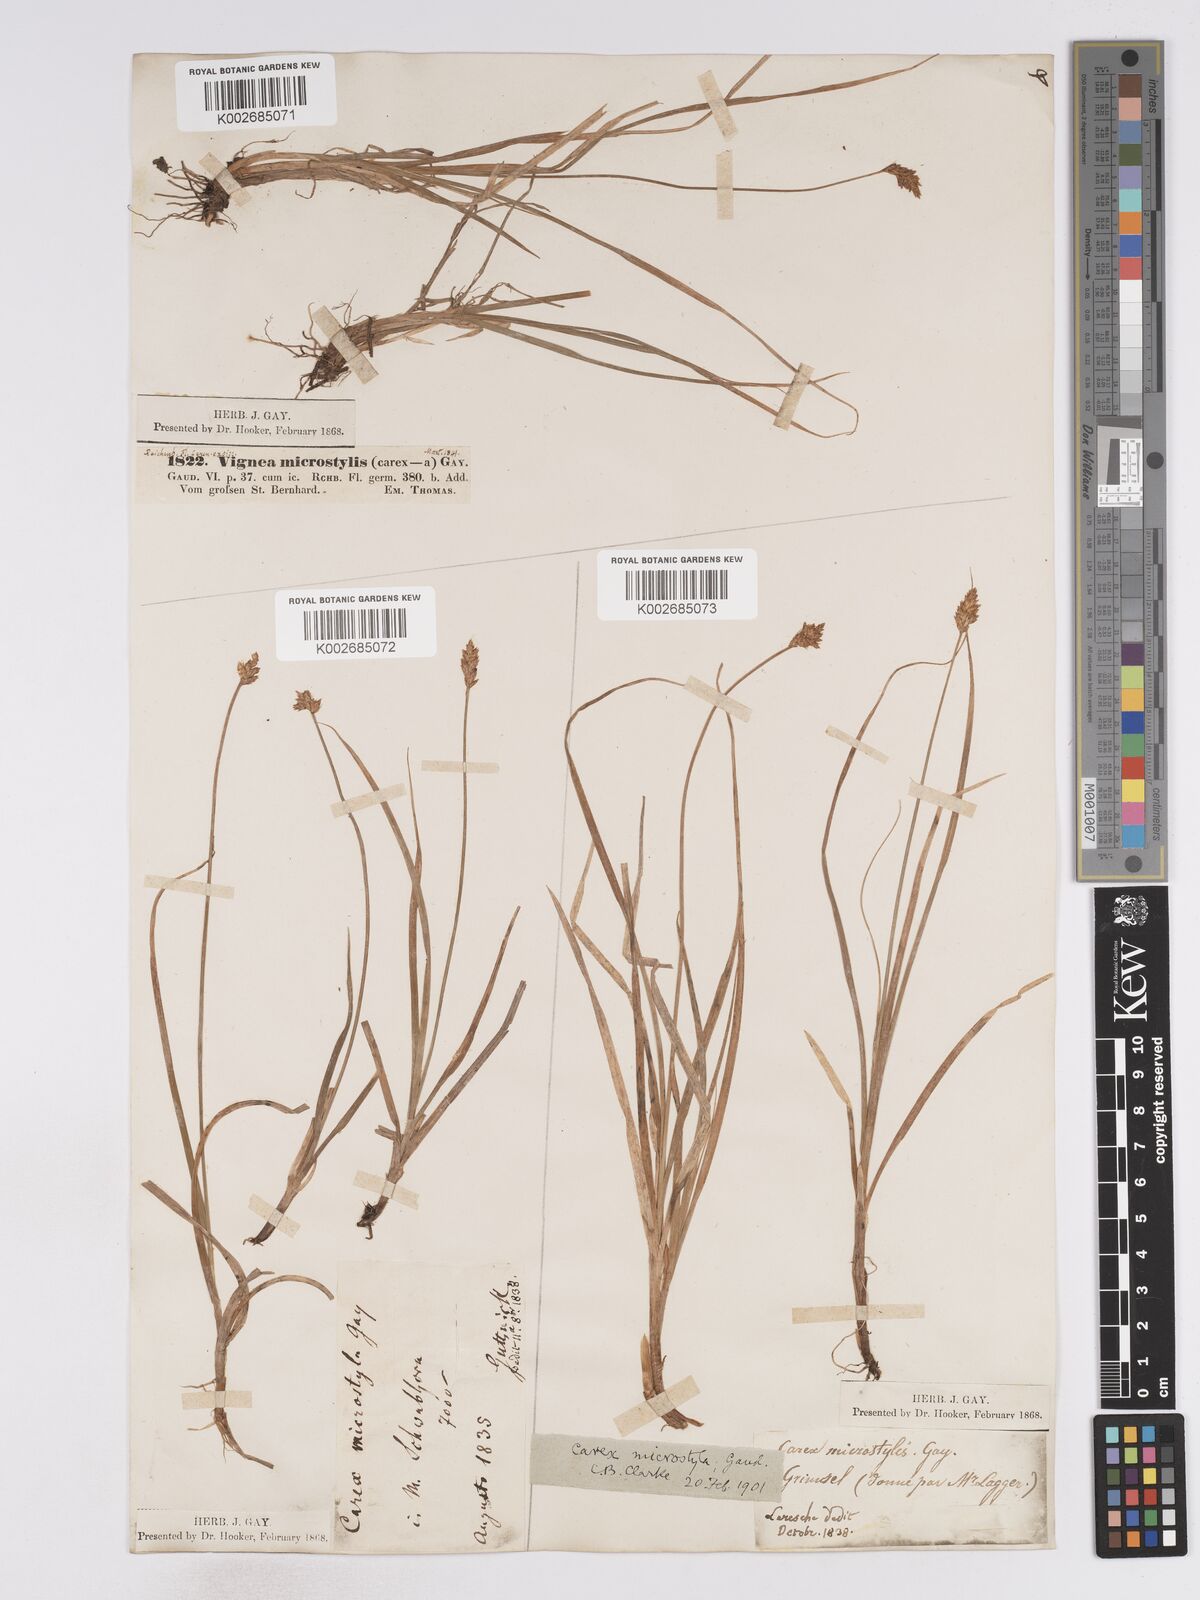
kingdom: Plantae
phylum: Tracheophyta
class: Liliopsida
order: Poales
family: Cyperaceae
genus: Carex
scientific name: Carex microstyla
